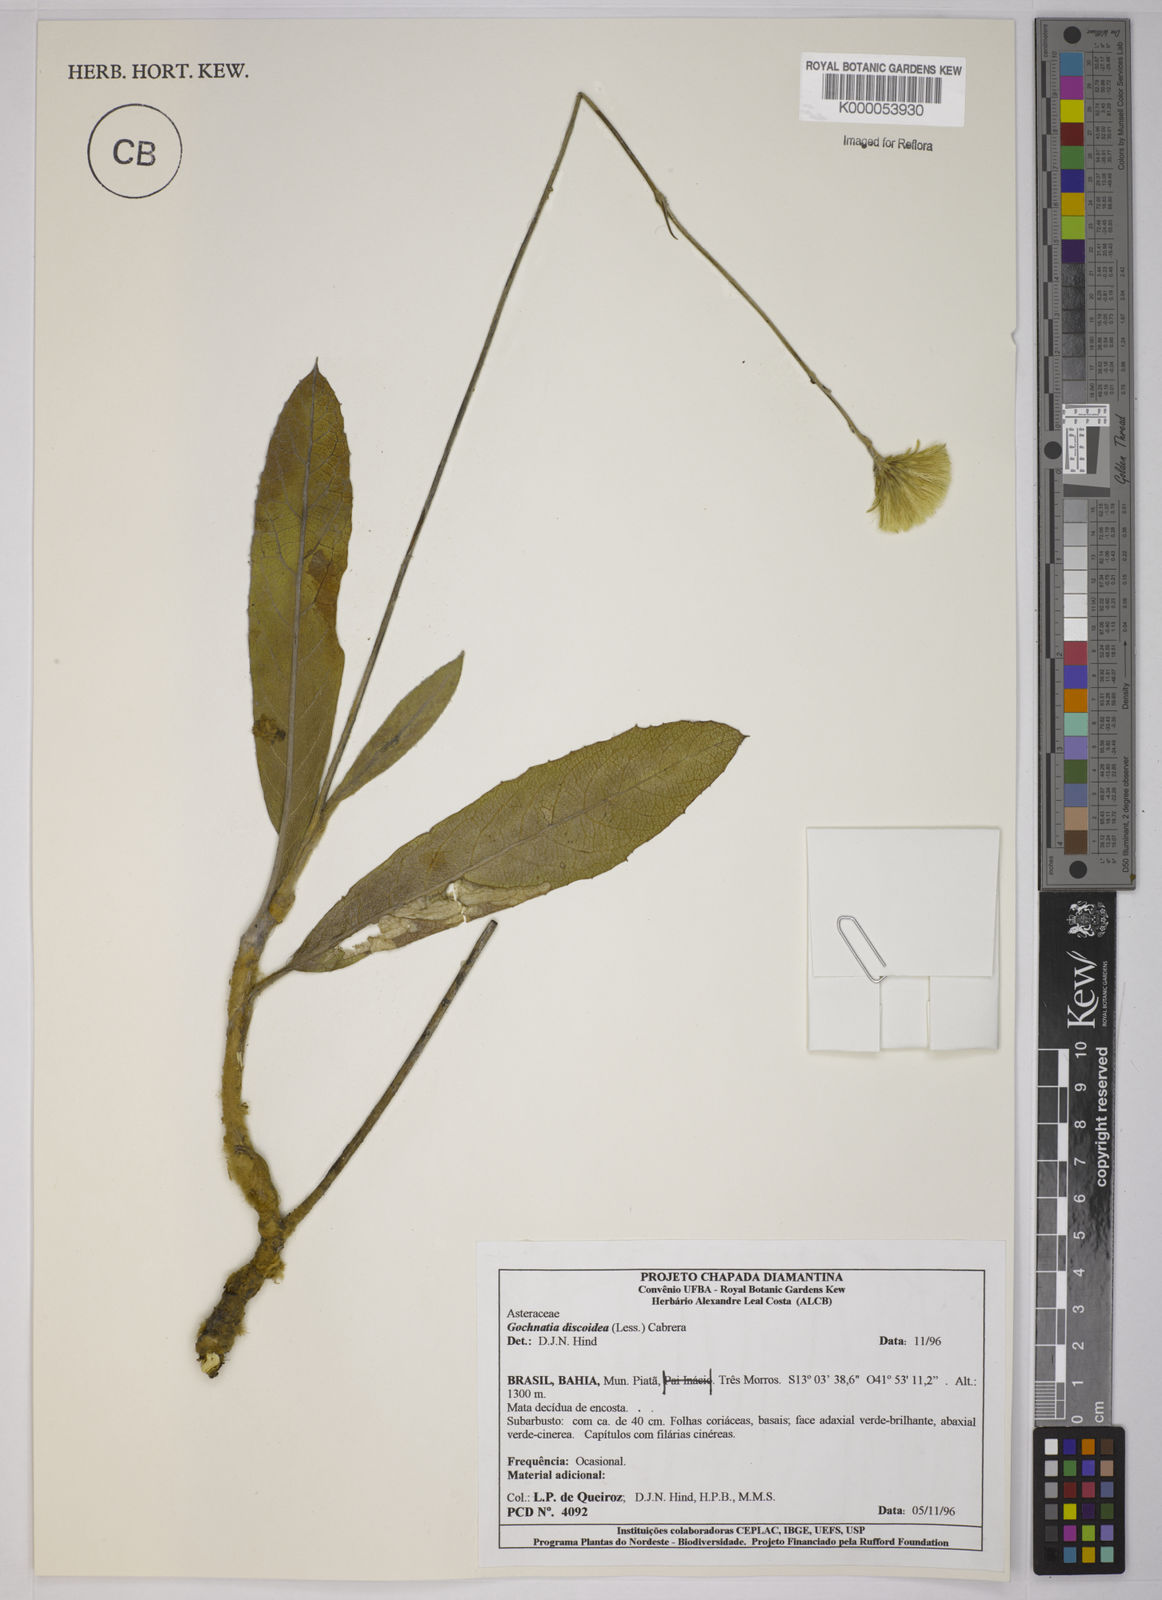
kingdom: Plantae
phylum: Tracheophyta
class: Magnoliopsida
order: Asterales
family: Asteraceae
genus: Richterago
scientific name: Richterago discoidea
